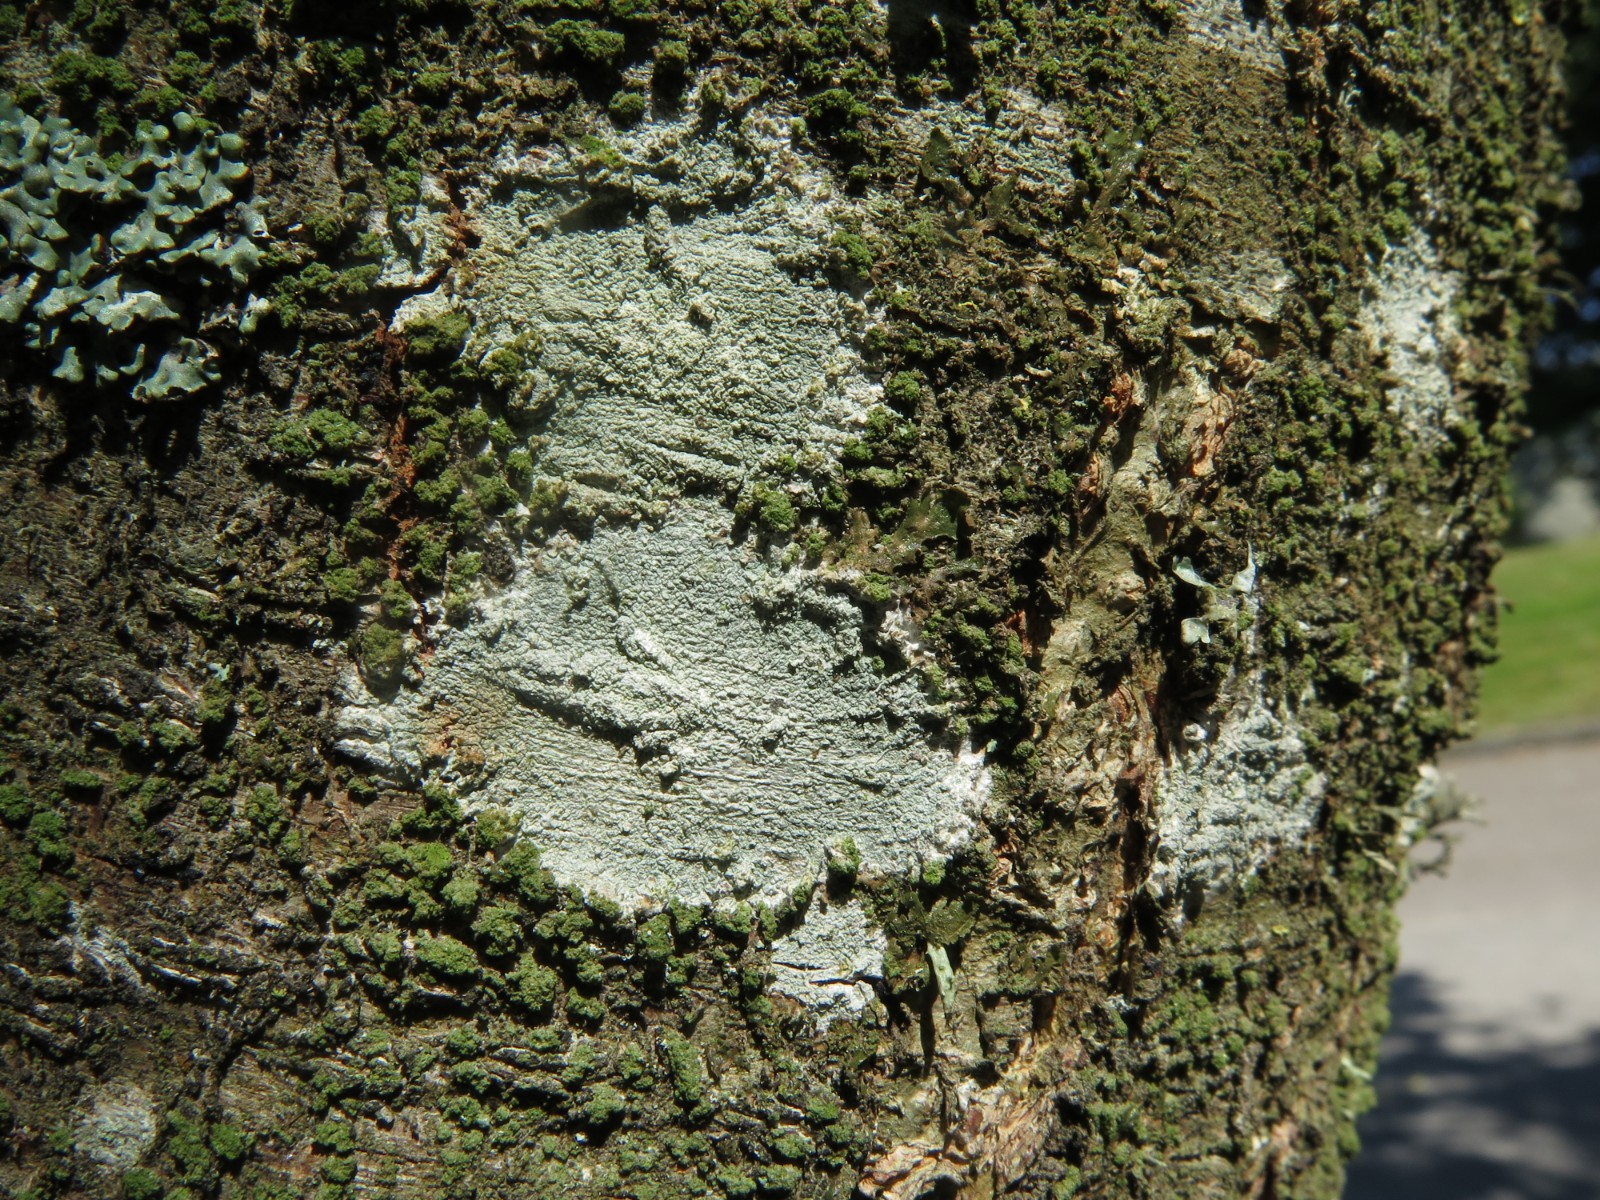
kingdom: Fungi
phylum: Ascomycota
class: Lecanoromycetes
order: Ostropales
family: Phlyctidaceae
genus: Phlyctis
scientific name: Phlyctis argena
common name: almindelig sølvlav
